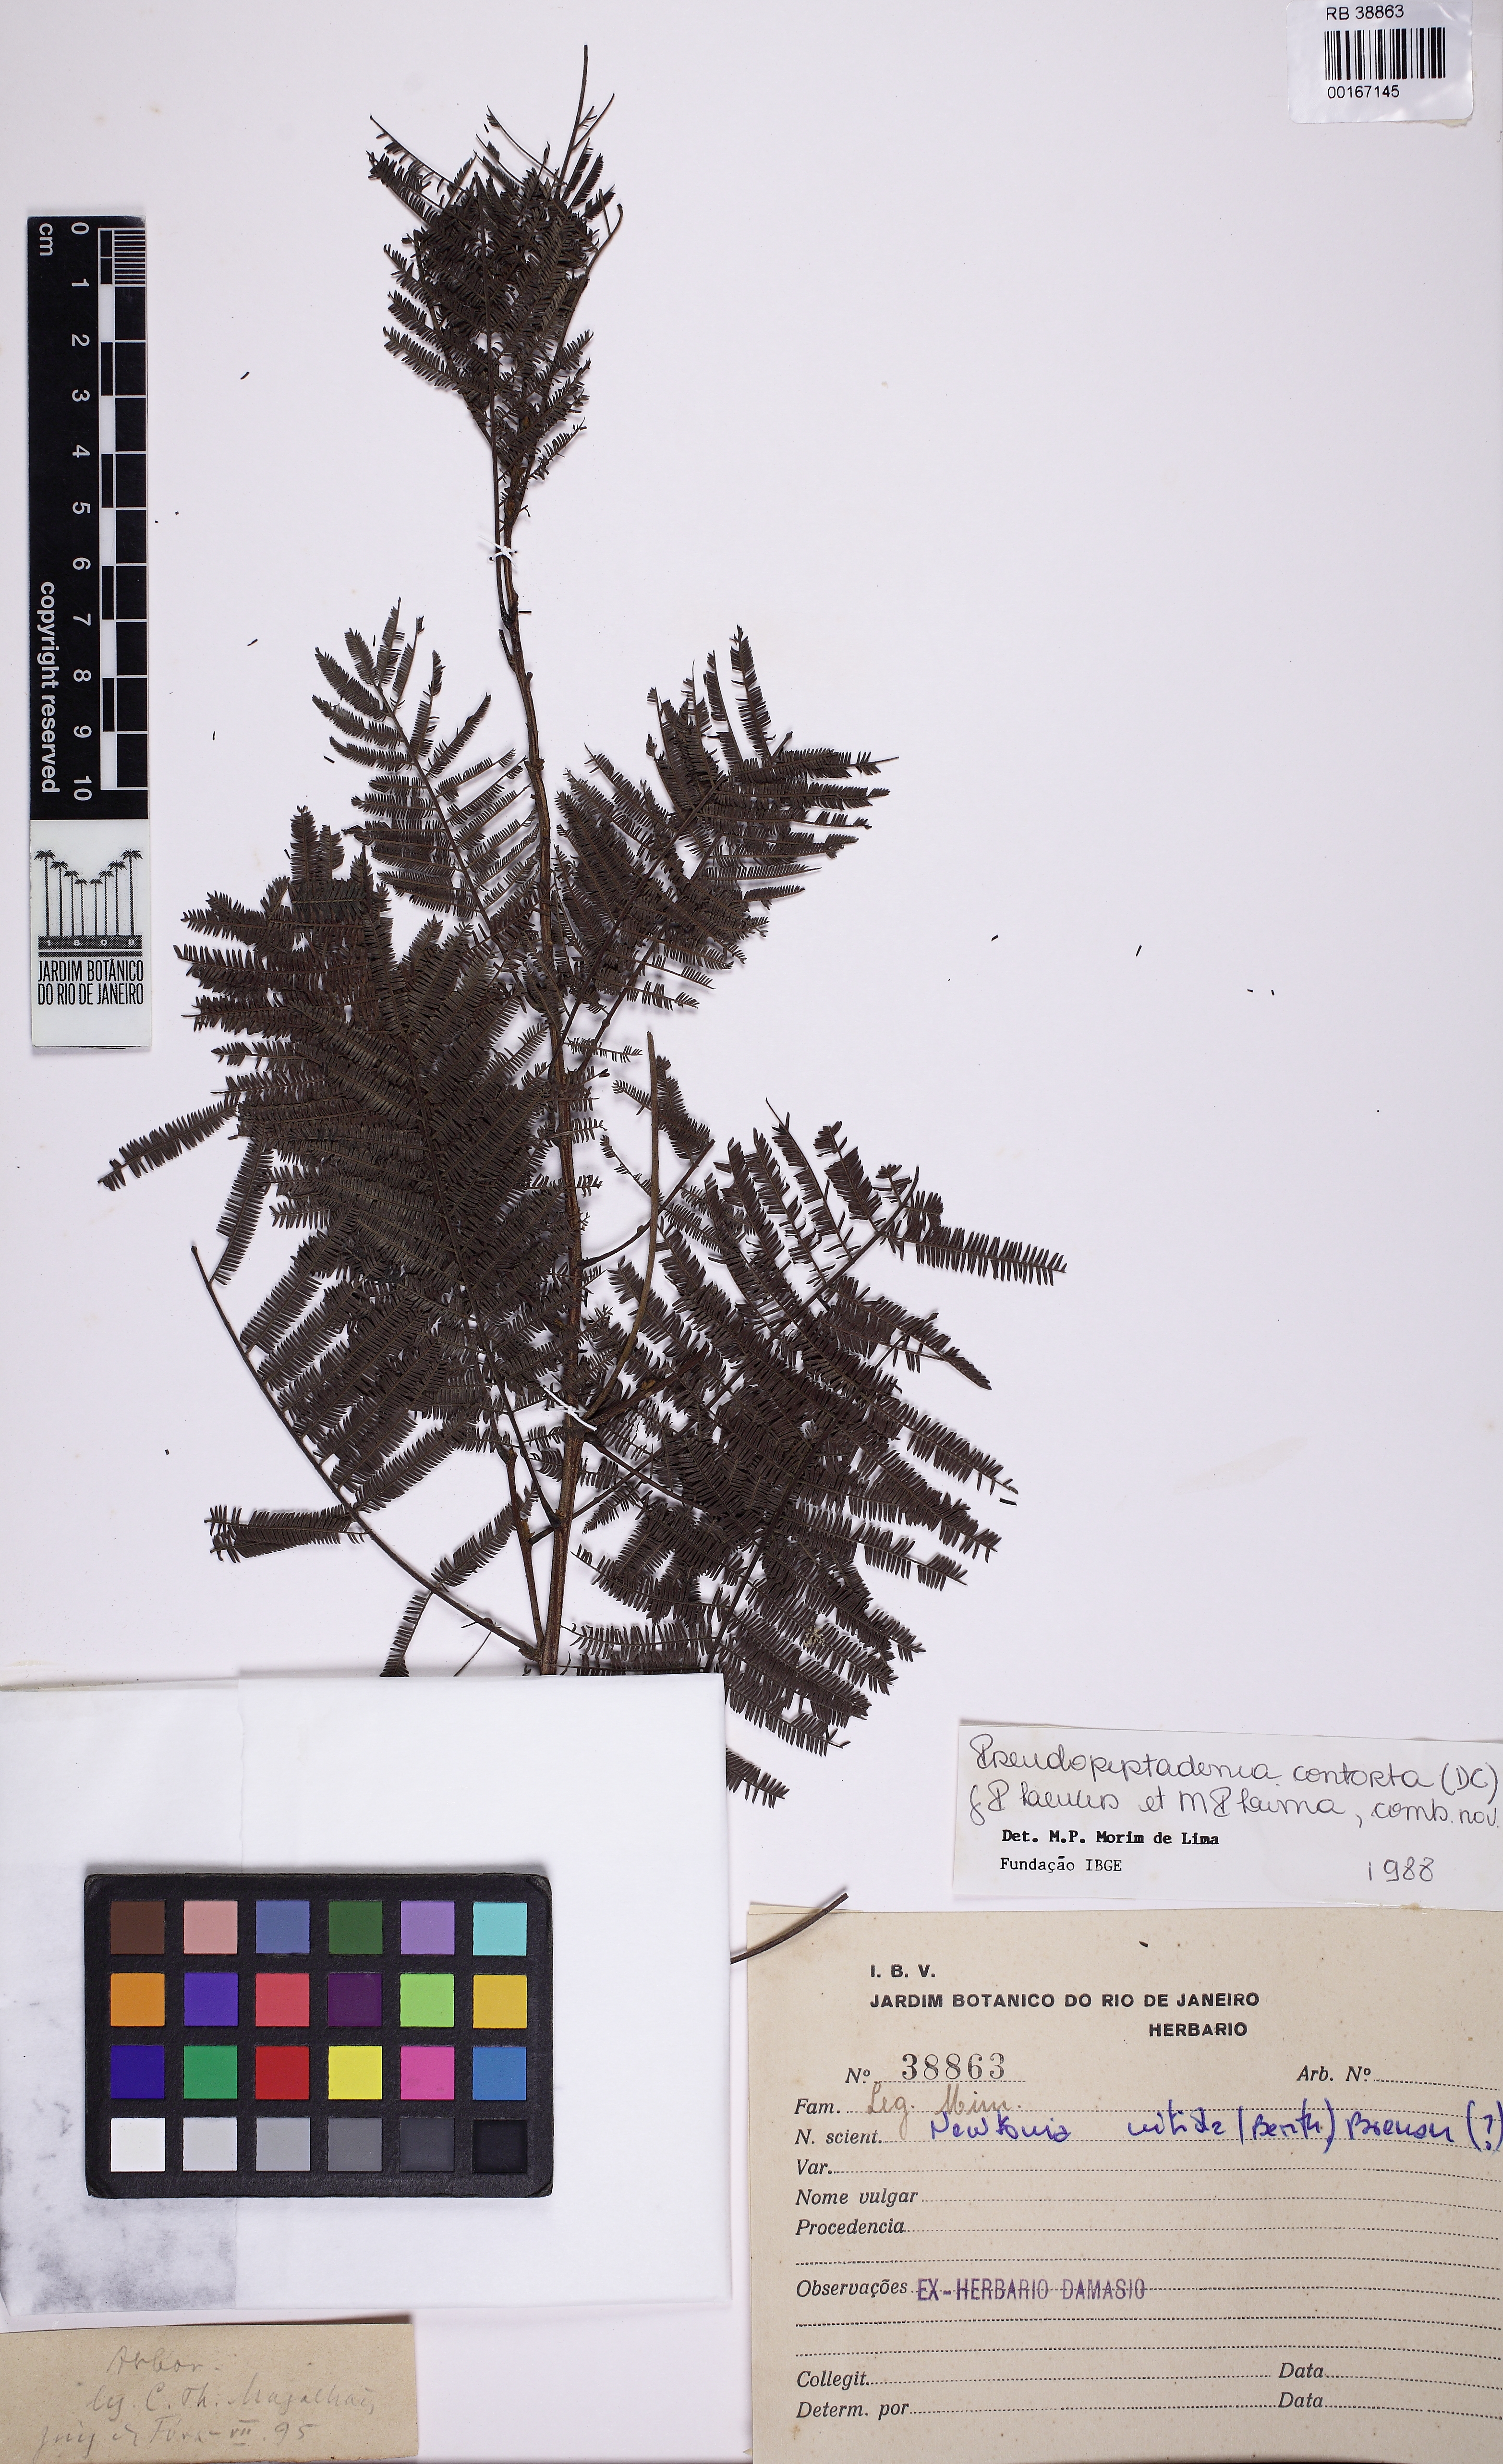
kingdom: Plantae
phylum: Tracheophyta
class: Magnoliopsida
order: Fabales
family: Fabaceae
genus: Pseudopiptadenia
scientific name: Pseudopiptadenia contorta
